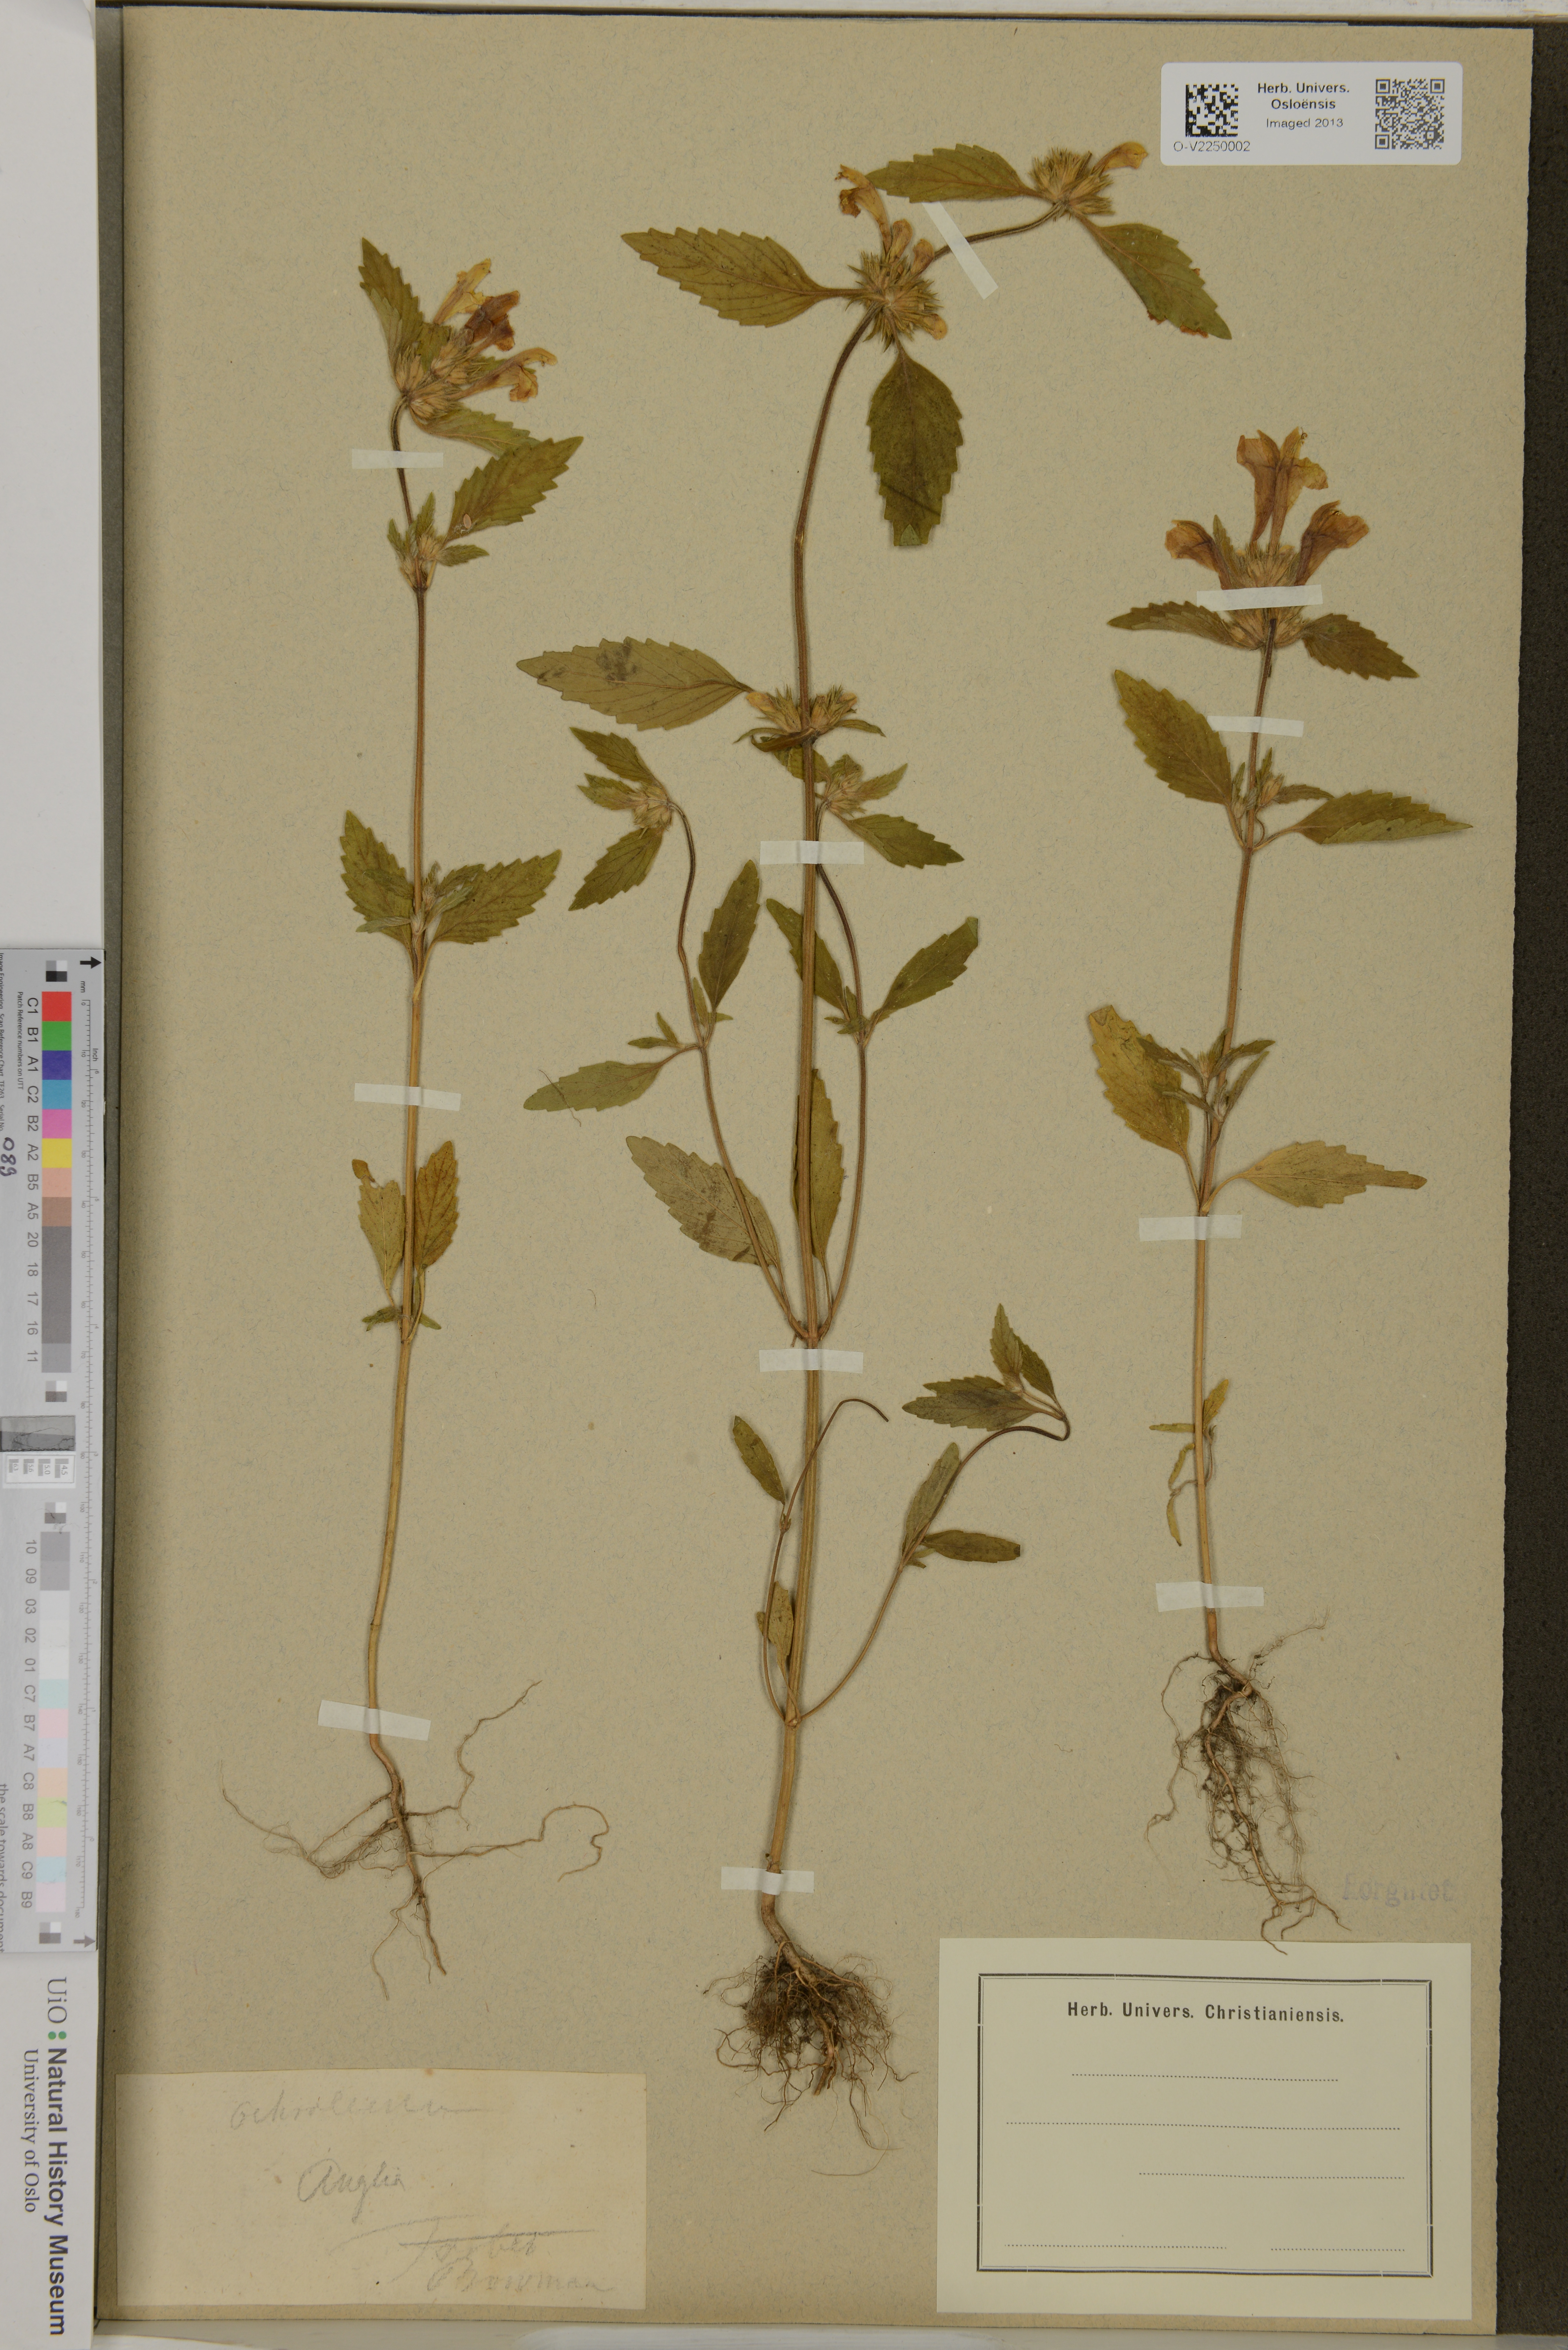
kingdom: Plantae
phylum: Tracheophyta
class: Magnoliopsida
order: Lamiales
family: Lamiaceae
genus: Galeopsis
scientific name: Galeopsis segetum
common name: Downy hemp-nettle
